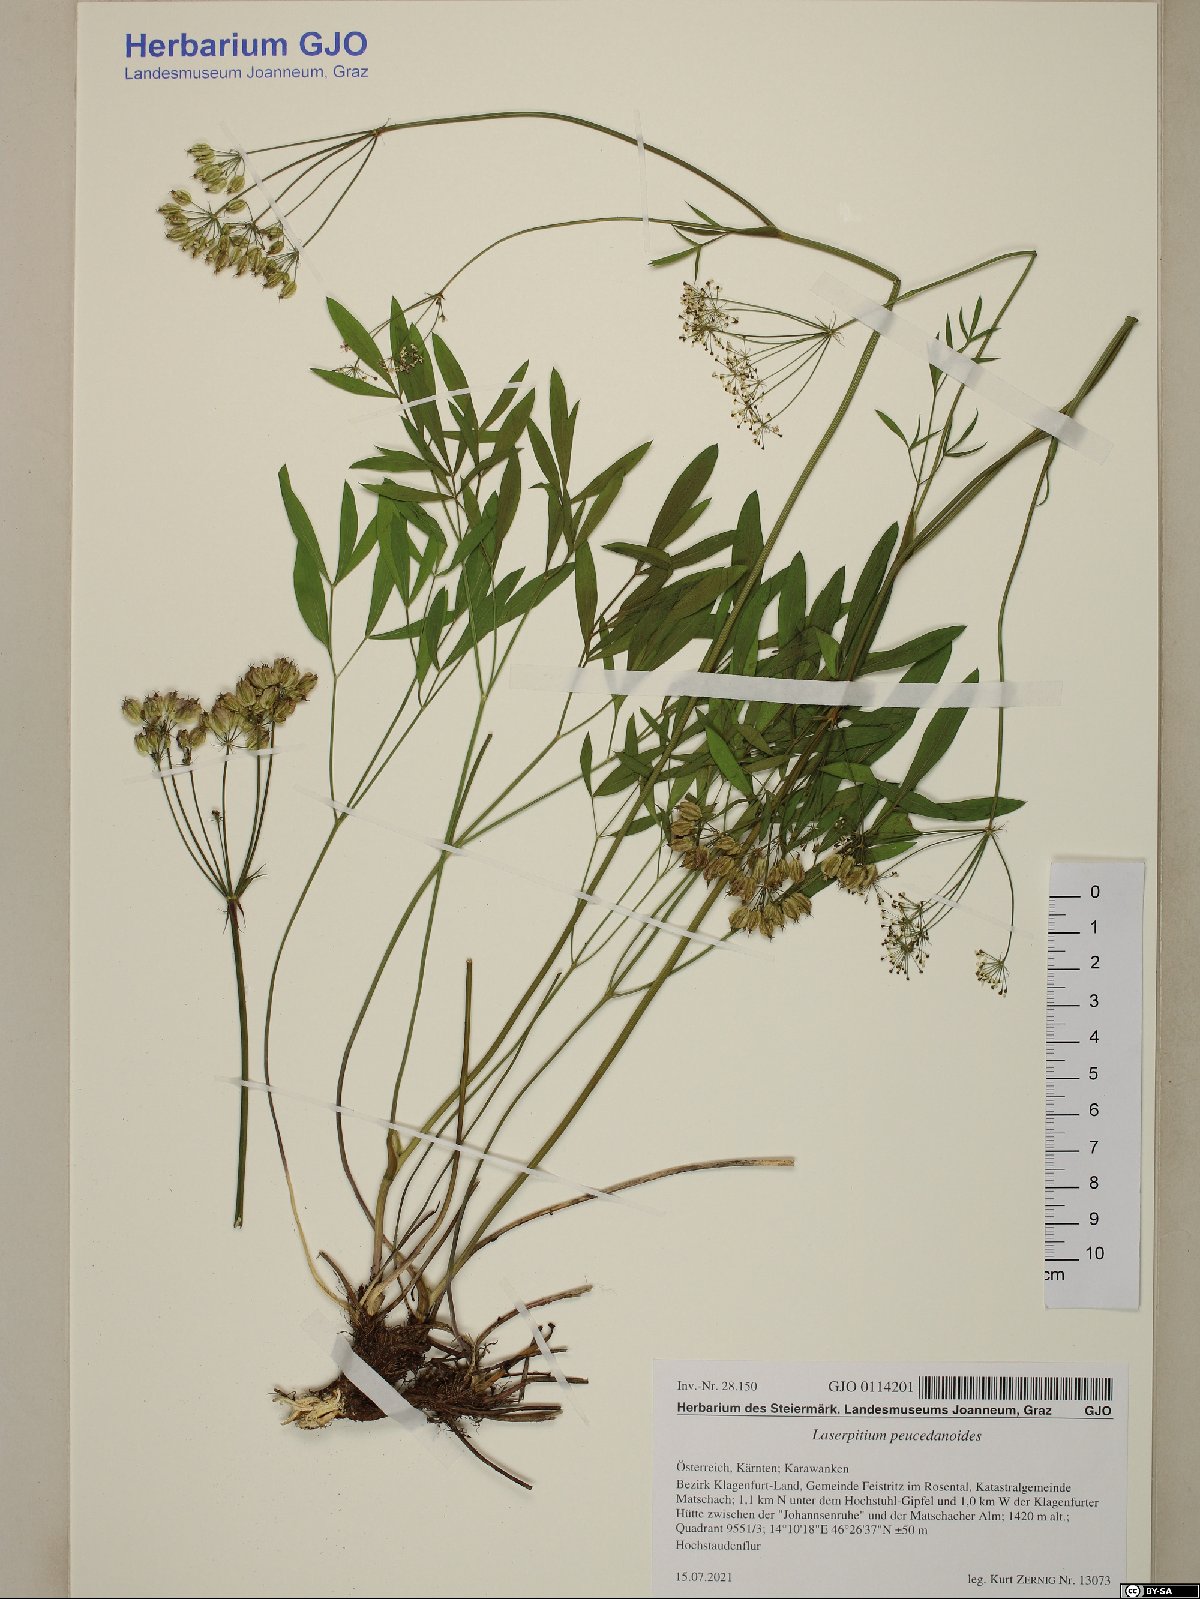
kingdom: Plantae
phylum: Tracheophyta
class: Magnoliopsida
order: Apiales
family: Apiaceae
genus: Laserpitium
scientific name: Laserpitium peucedanoides
